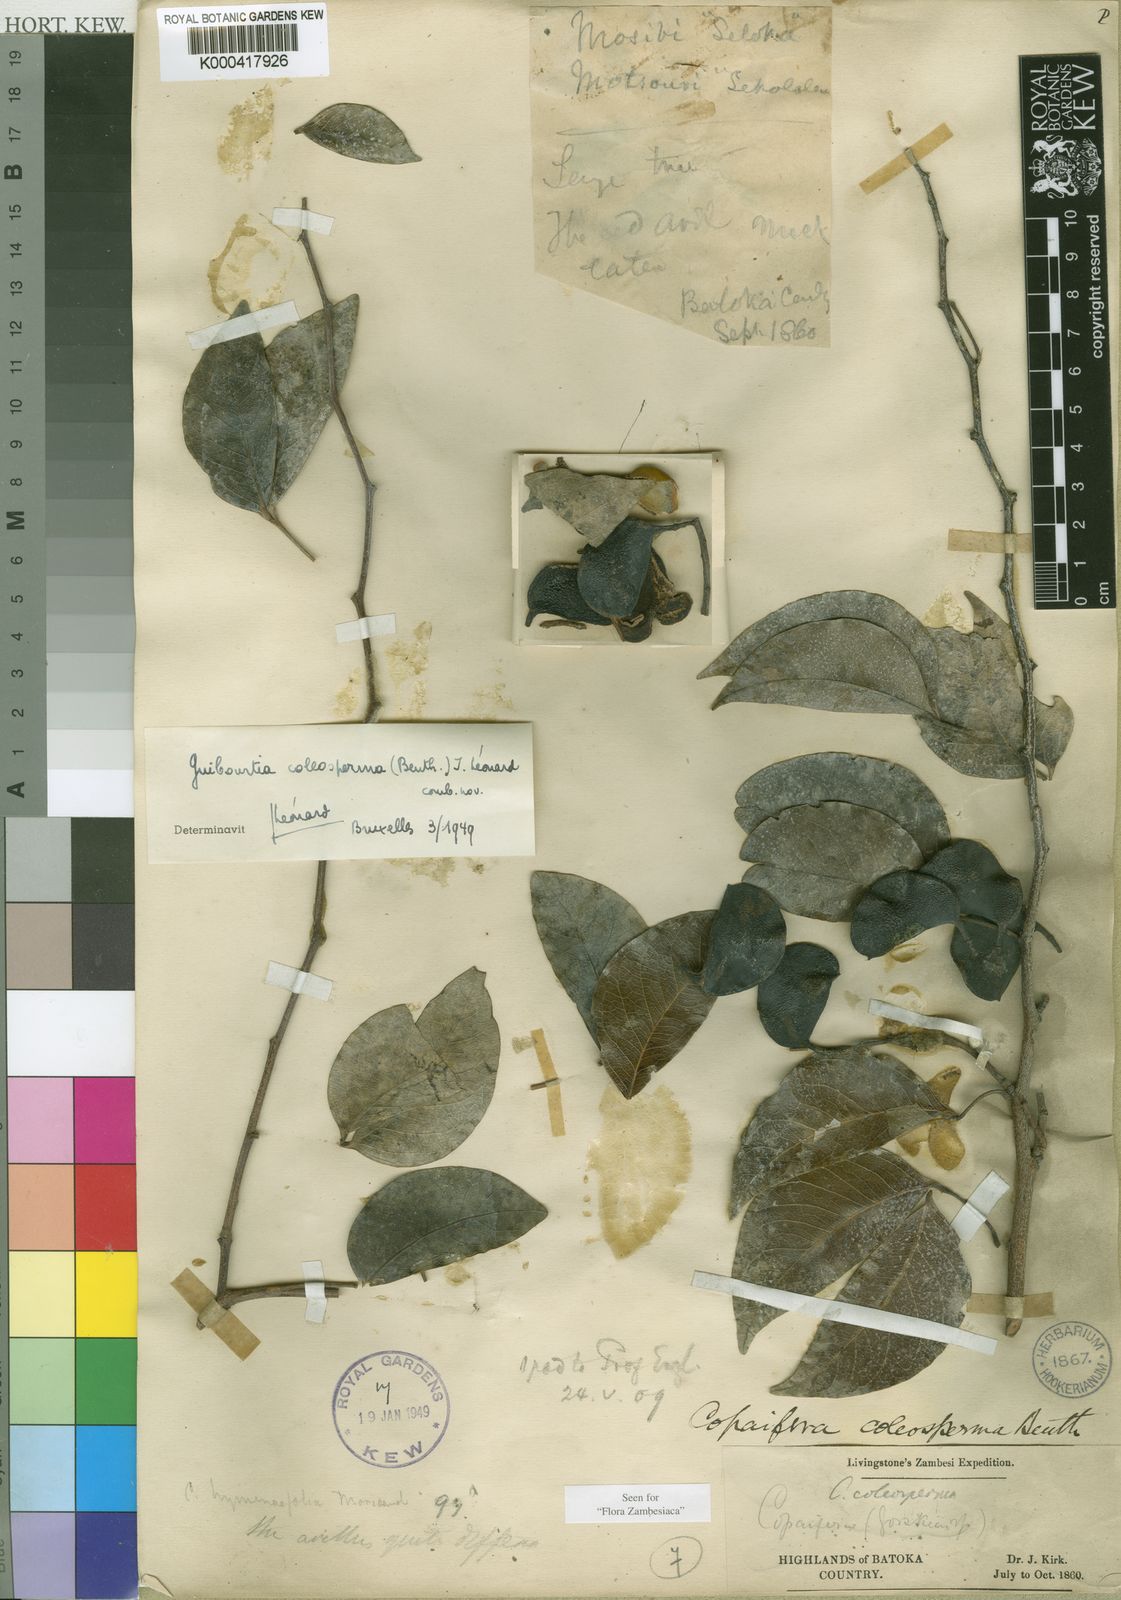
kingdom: Plantae
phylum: Tracheophyta
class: Magnoliopsida
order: Fabales
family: Fabaceae
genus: Guibourtia
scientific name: Guibourtia
